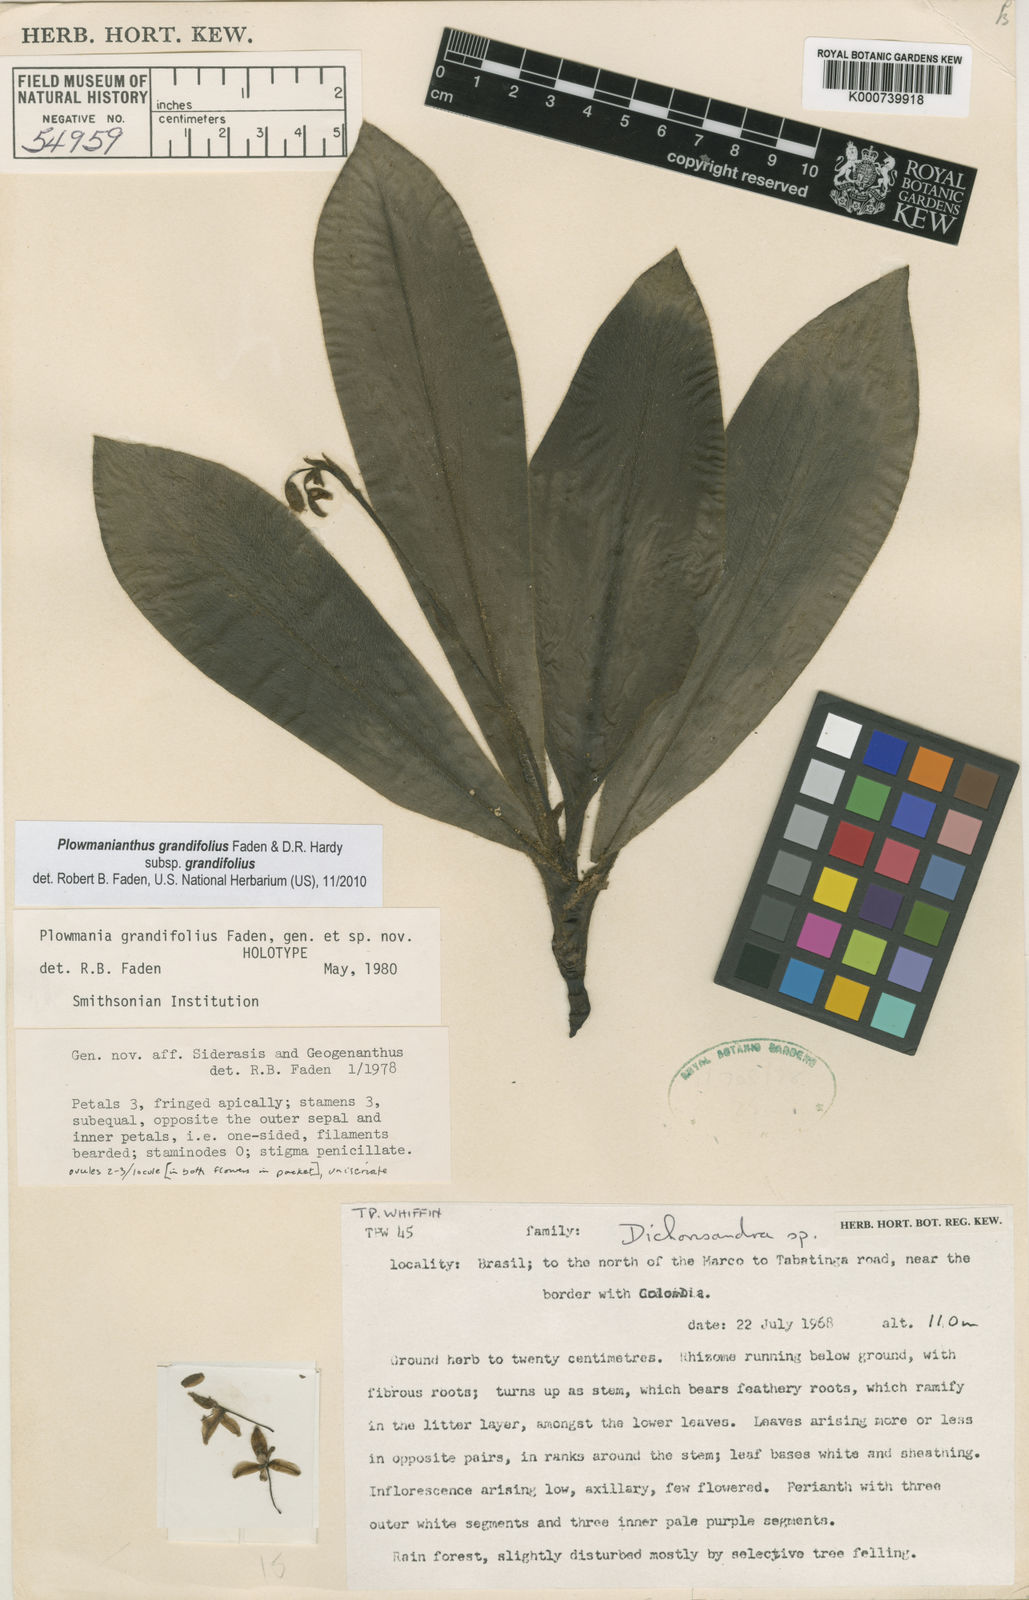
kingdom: Plantae
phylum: Tracheophyta
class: Liliopsida
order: Commelinales
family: Commelinaceae
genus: Plowmanianthus
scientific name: Plowmanianthus grandifolius
